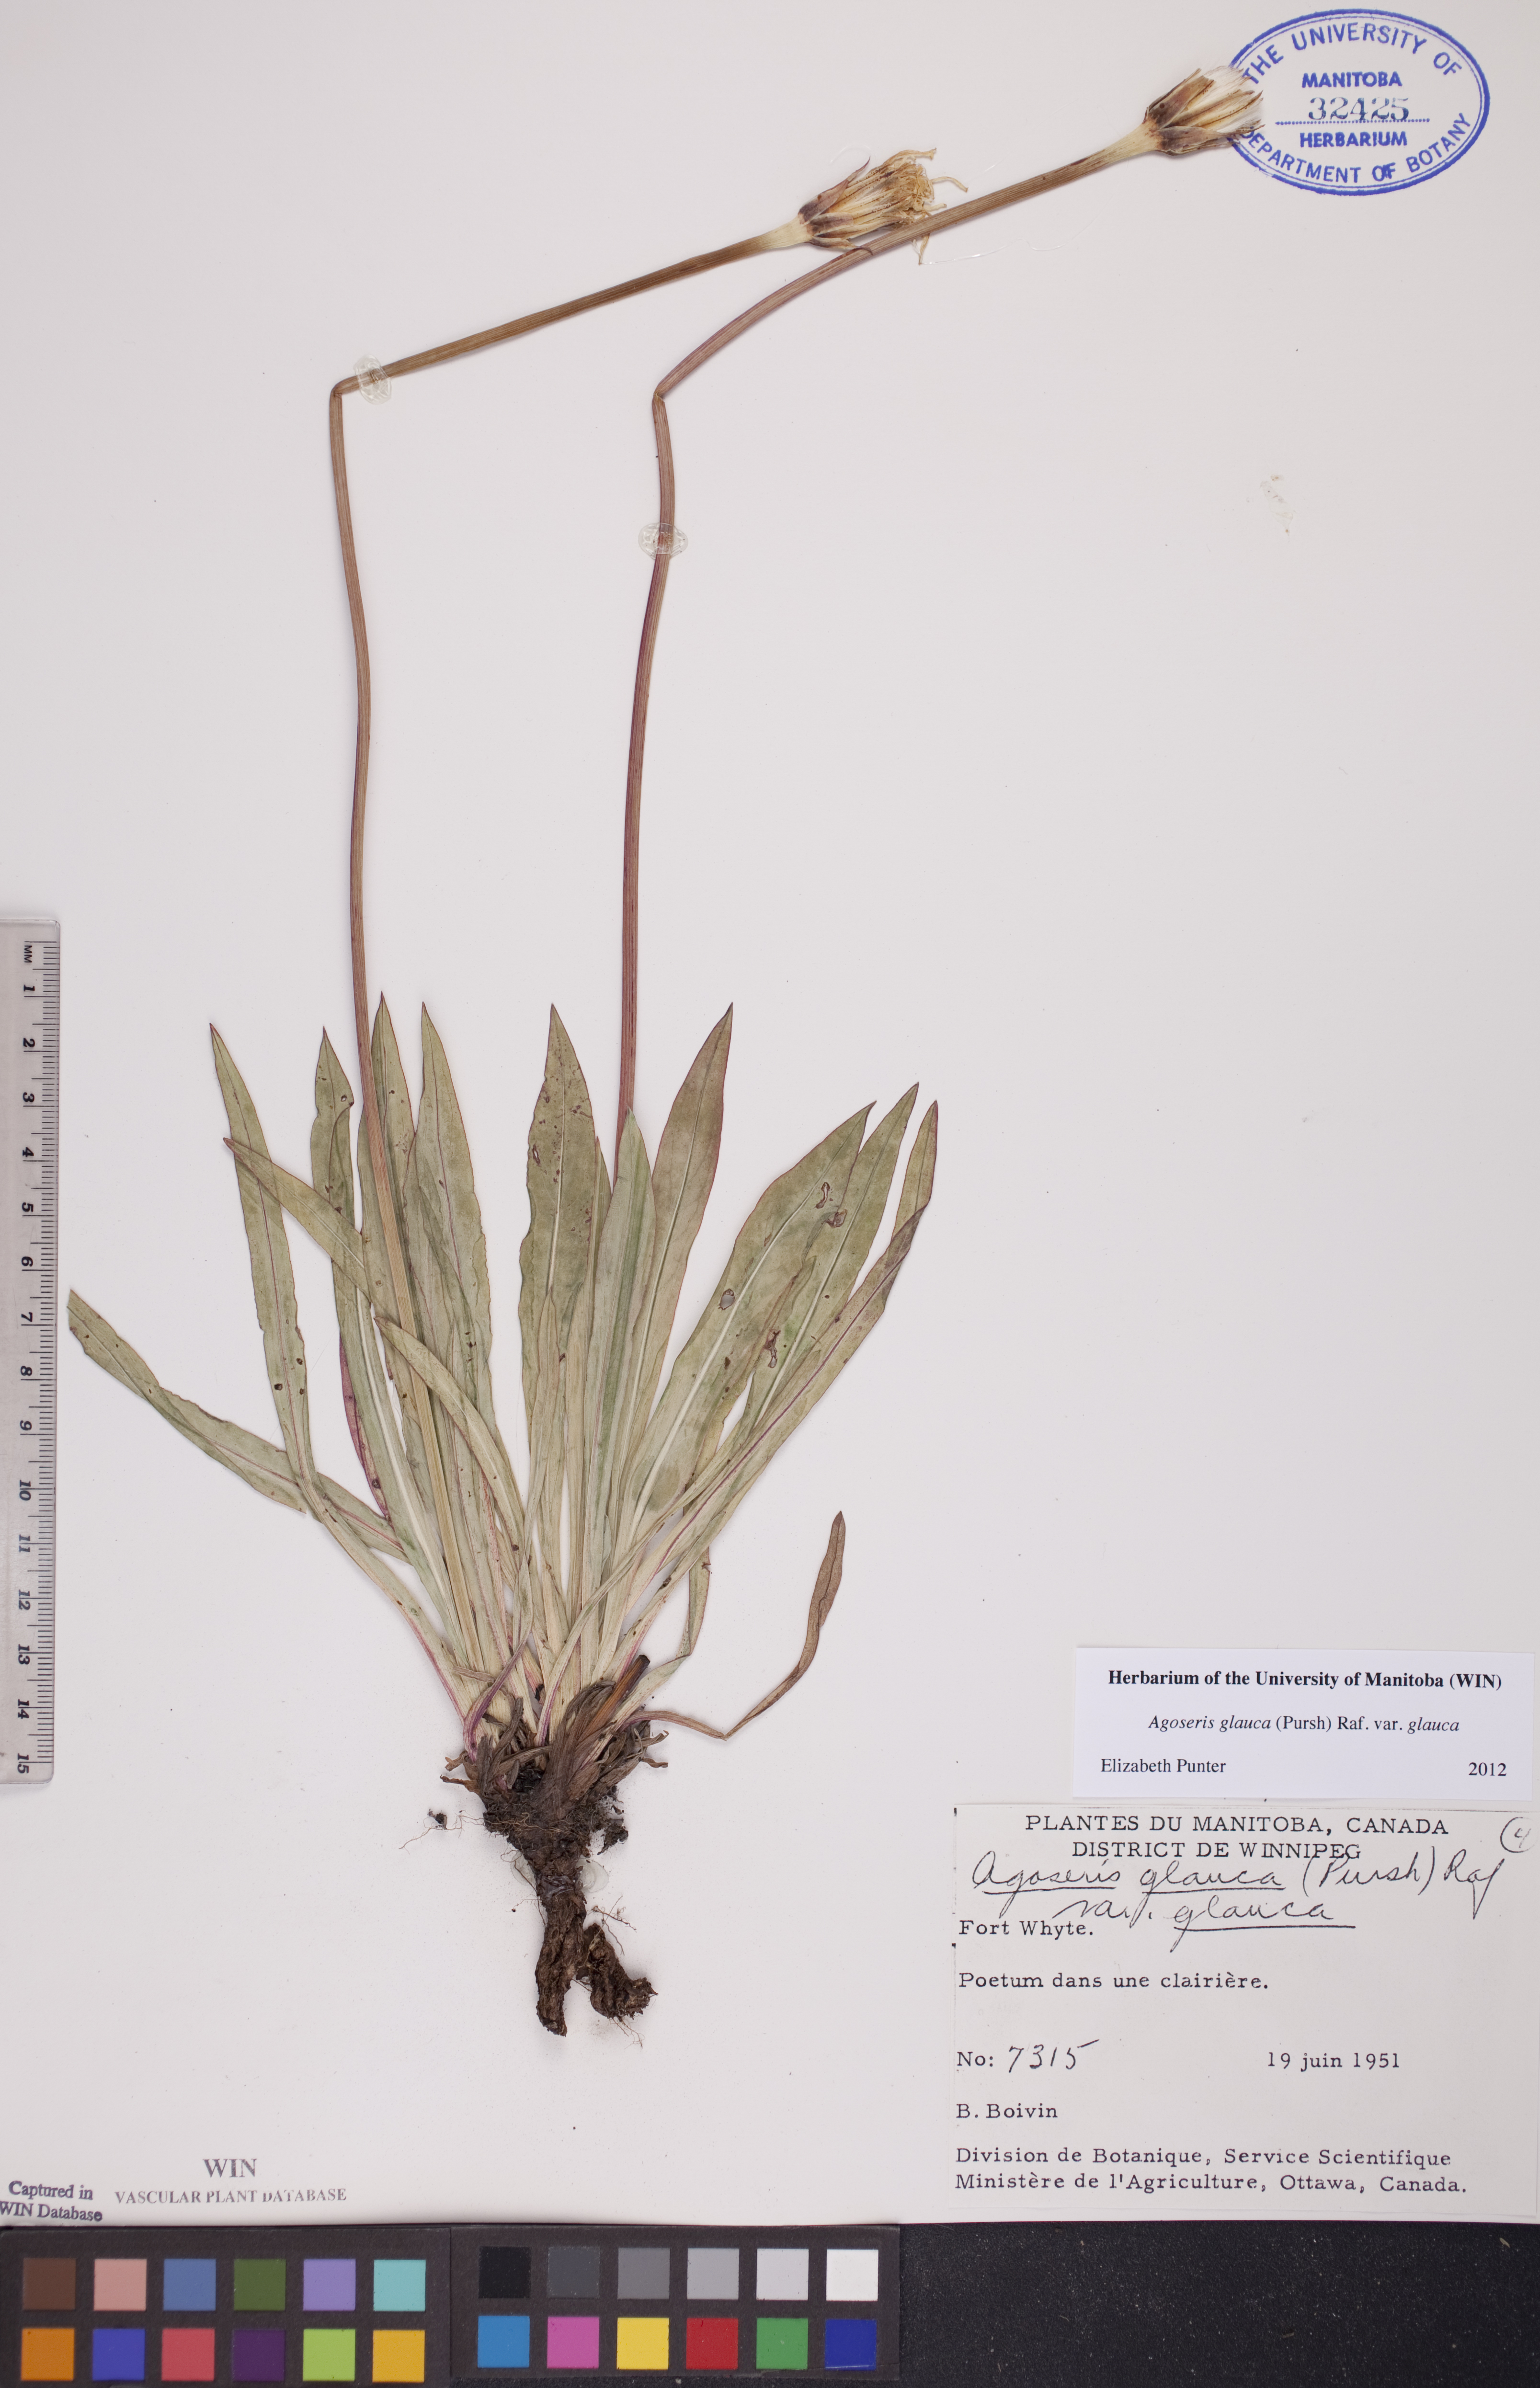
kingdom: Plantae
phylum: Tracheophyta
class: Magnoliopsida
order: Asterales
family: Asteraceae
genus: Agoseris
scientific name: Agoseris glauca
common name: Prairie agoseris
